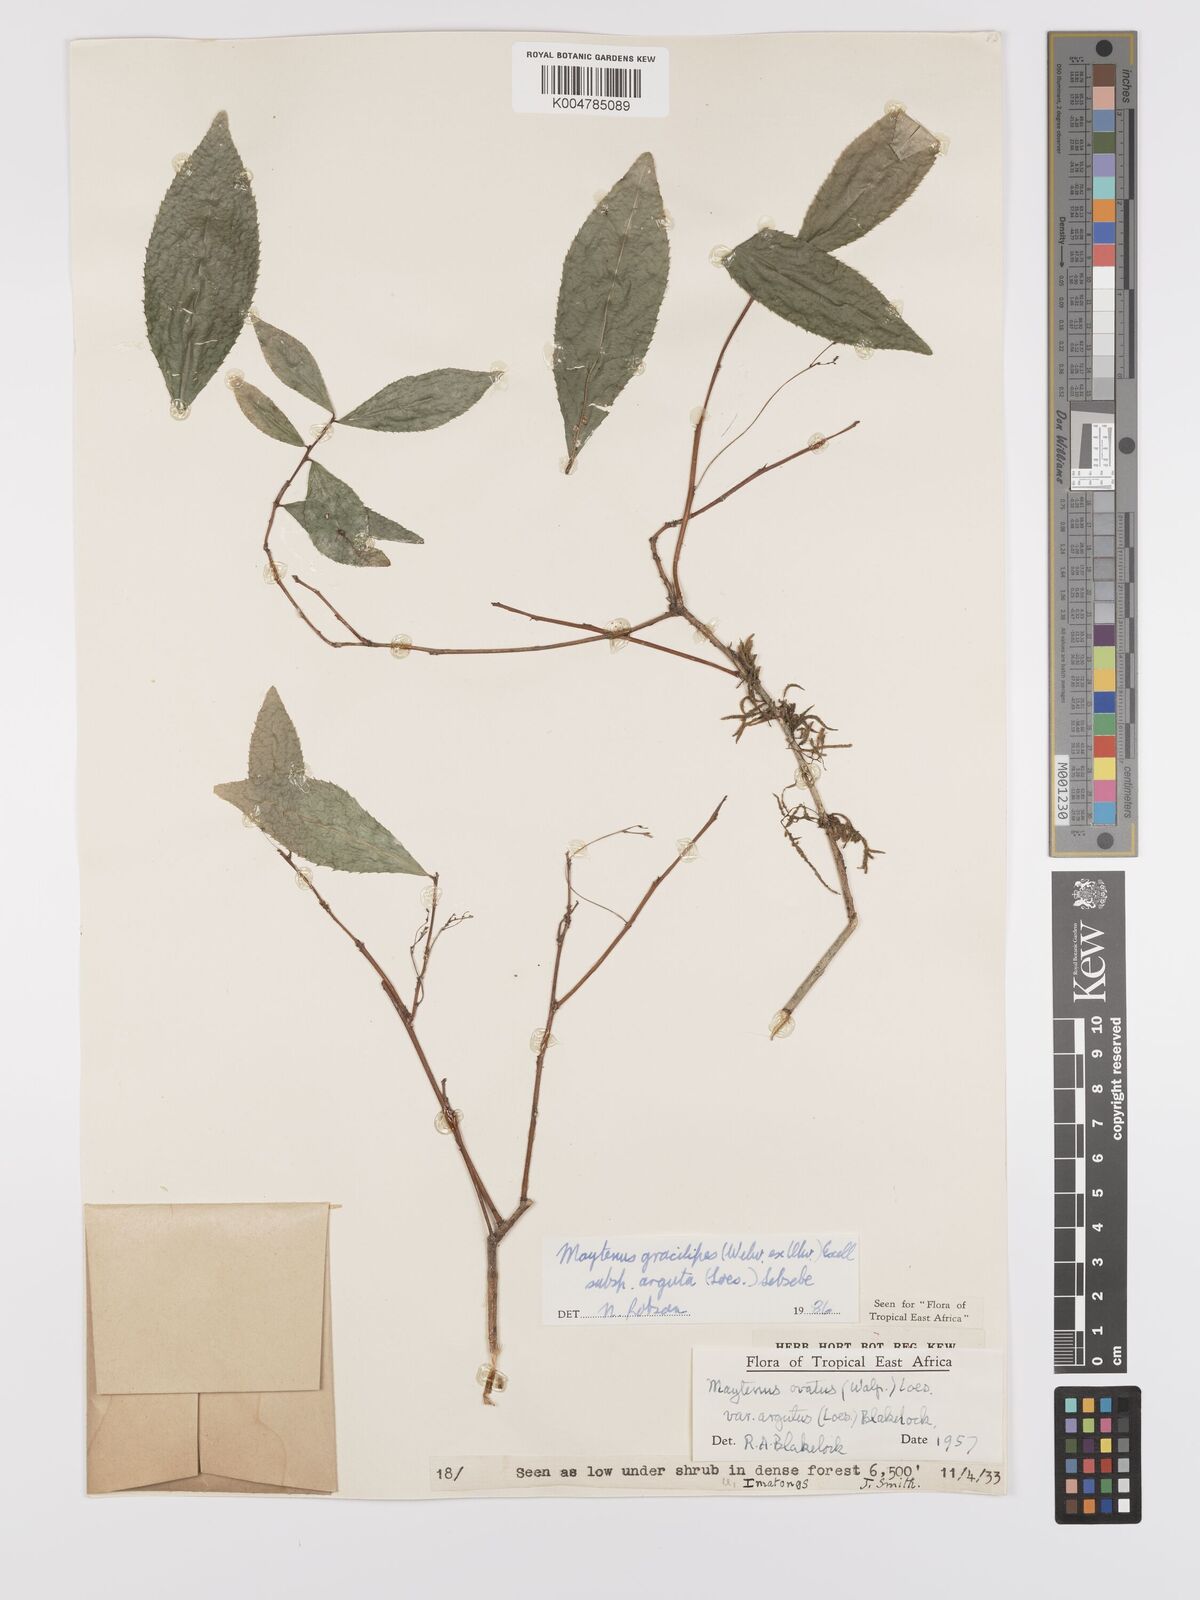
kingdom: Plantae
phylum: Tracheophyta
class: Magnoliopsida
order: Celastrales
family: Celastraceae
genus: Gymnosporia
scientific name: Gymnosporia gracilipes
